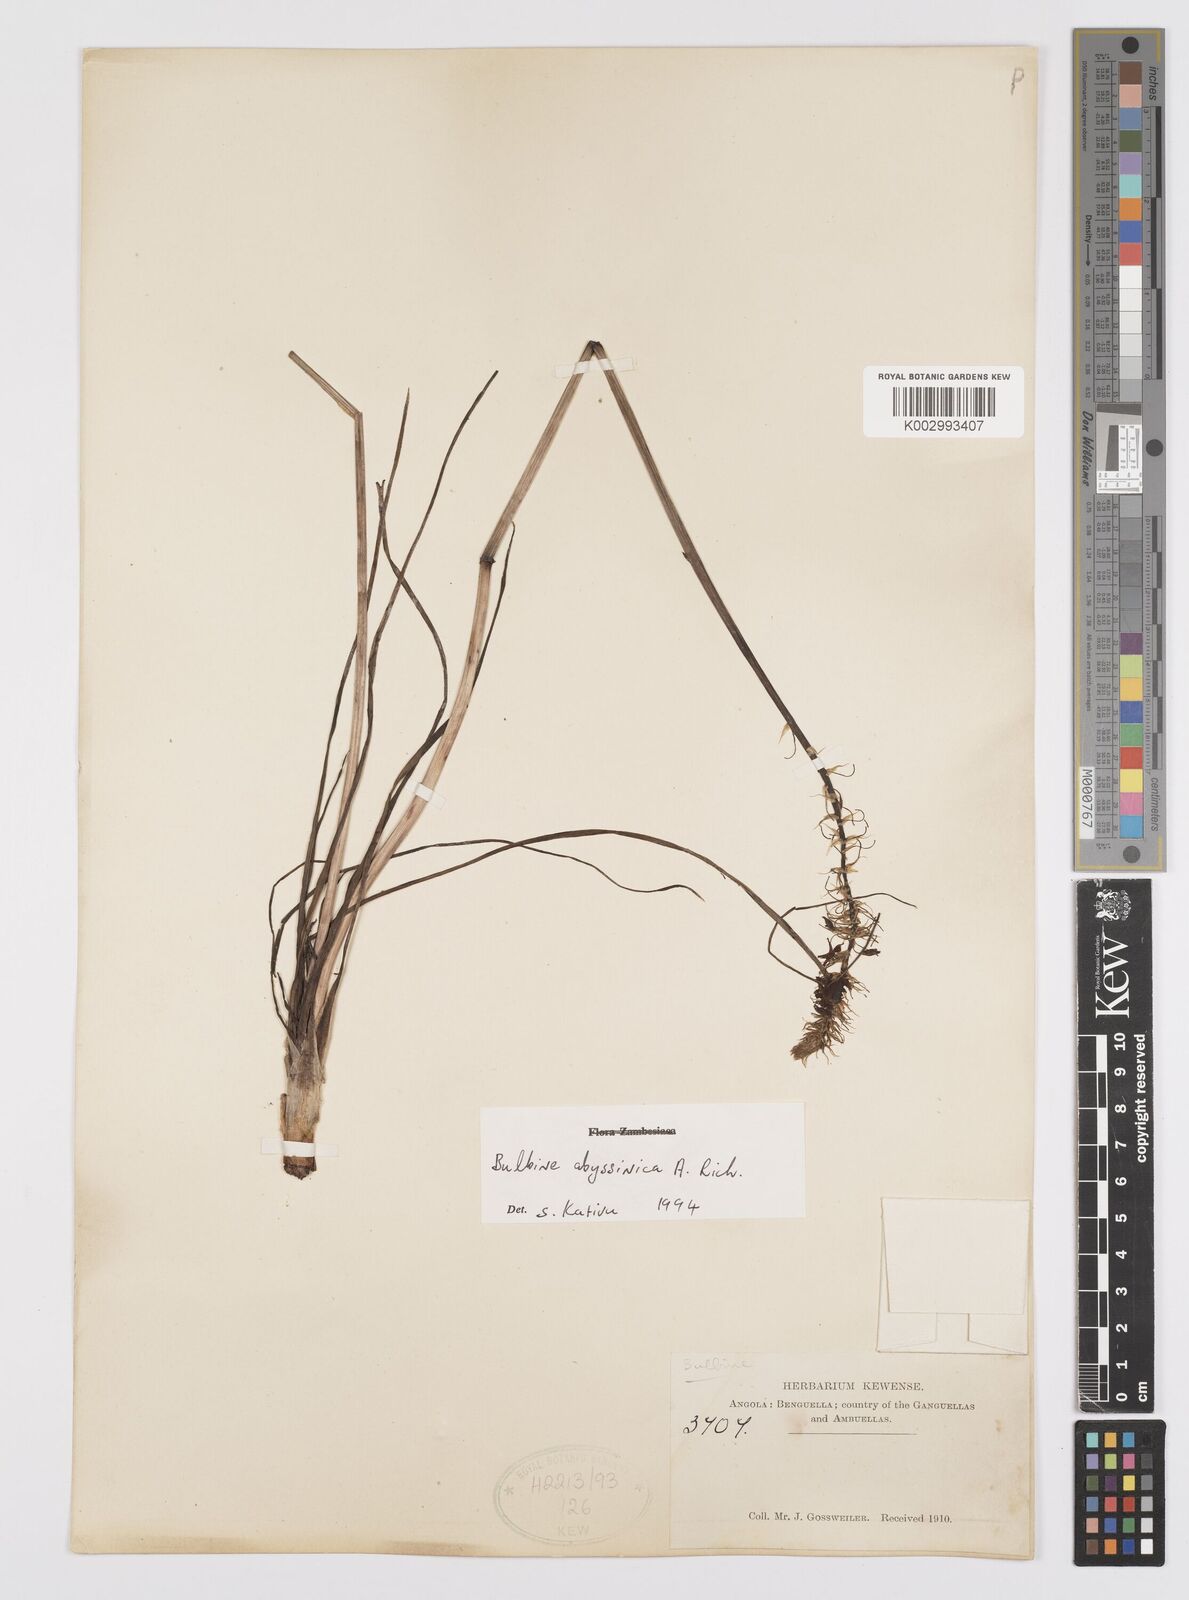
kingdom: Plantae
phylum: Tracheophyta
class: Liliopsida
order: Asparagales
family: Asphodelaceae
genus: Bulbine
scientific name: Bulbine abyssinica
